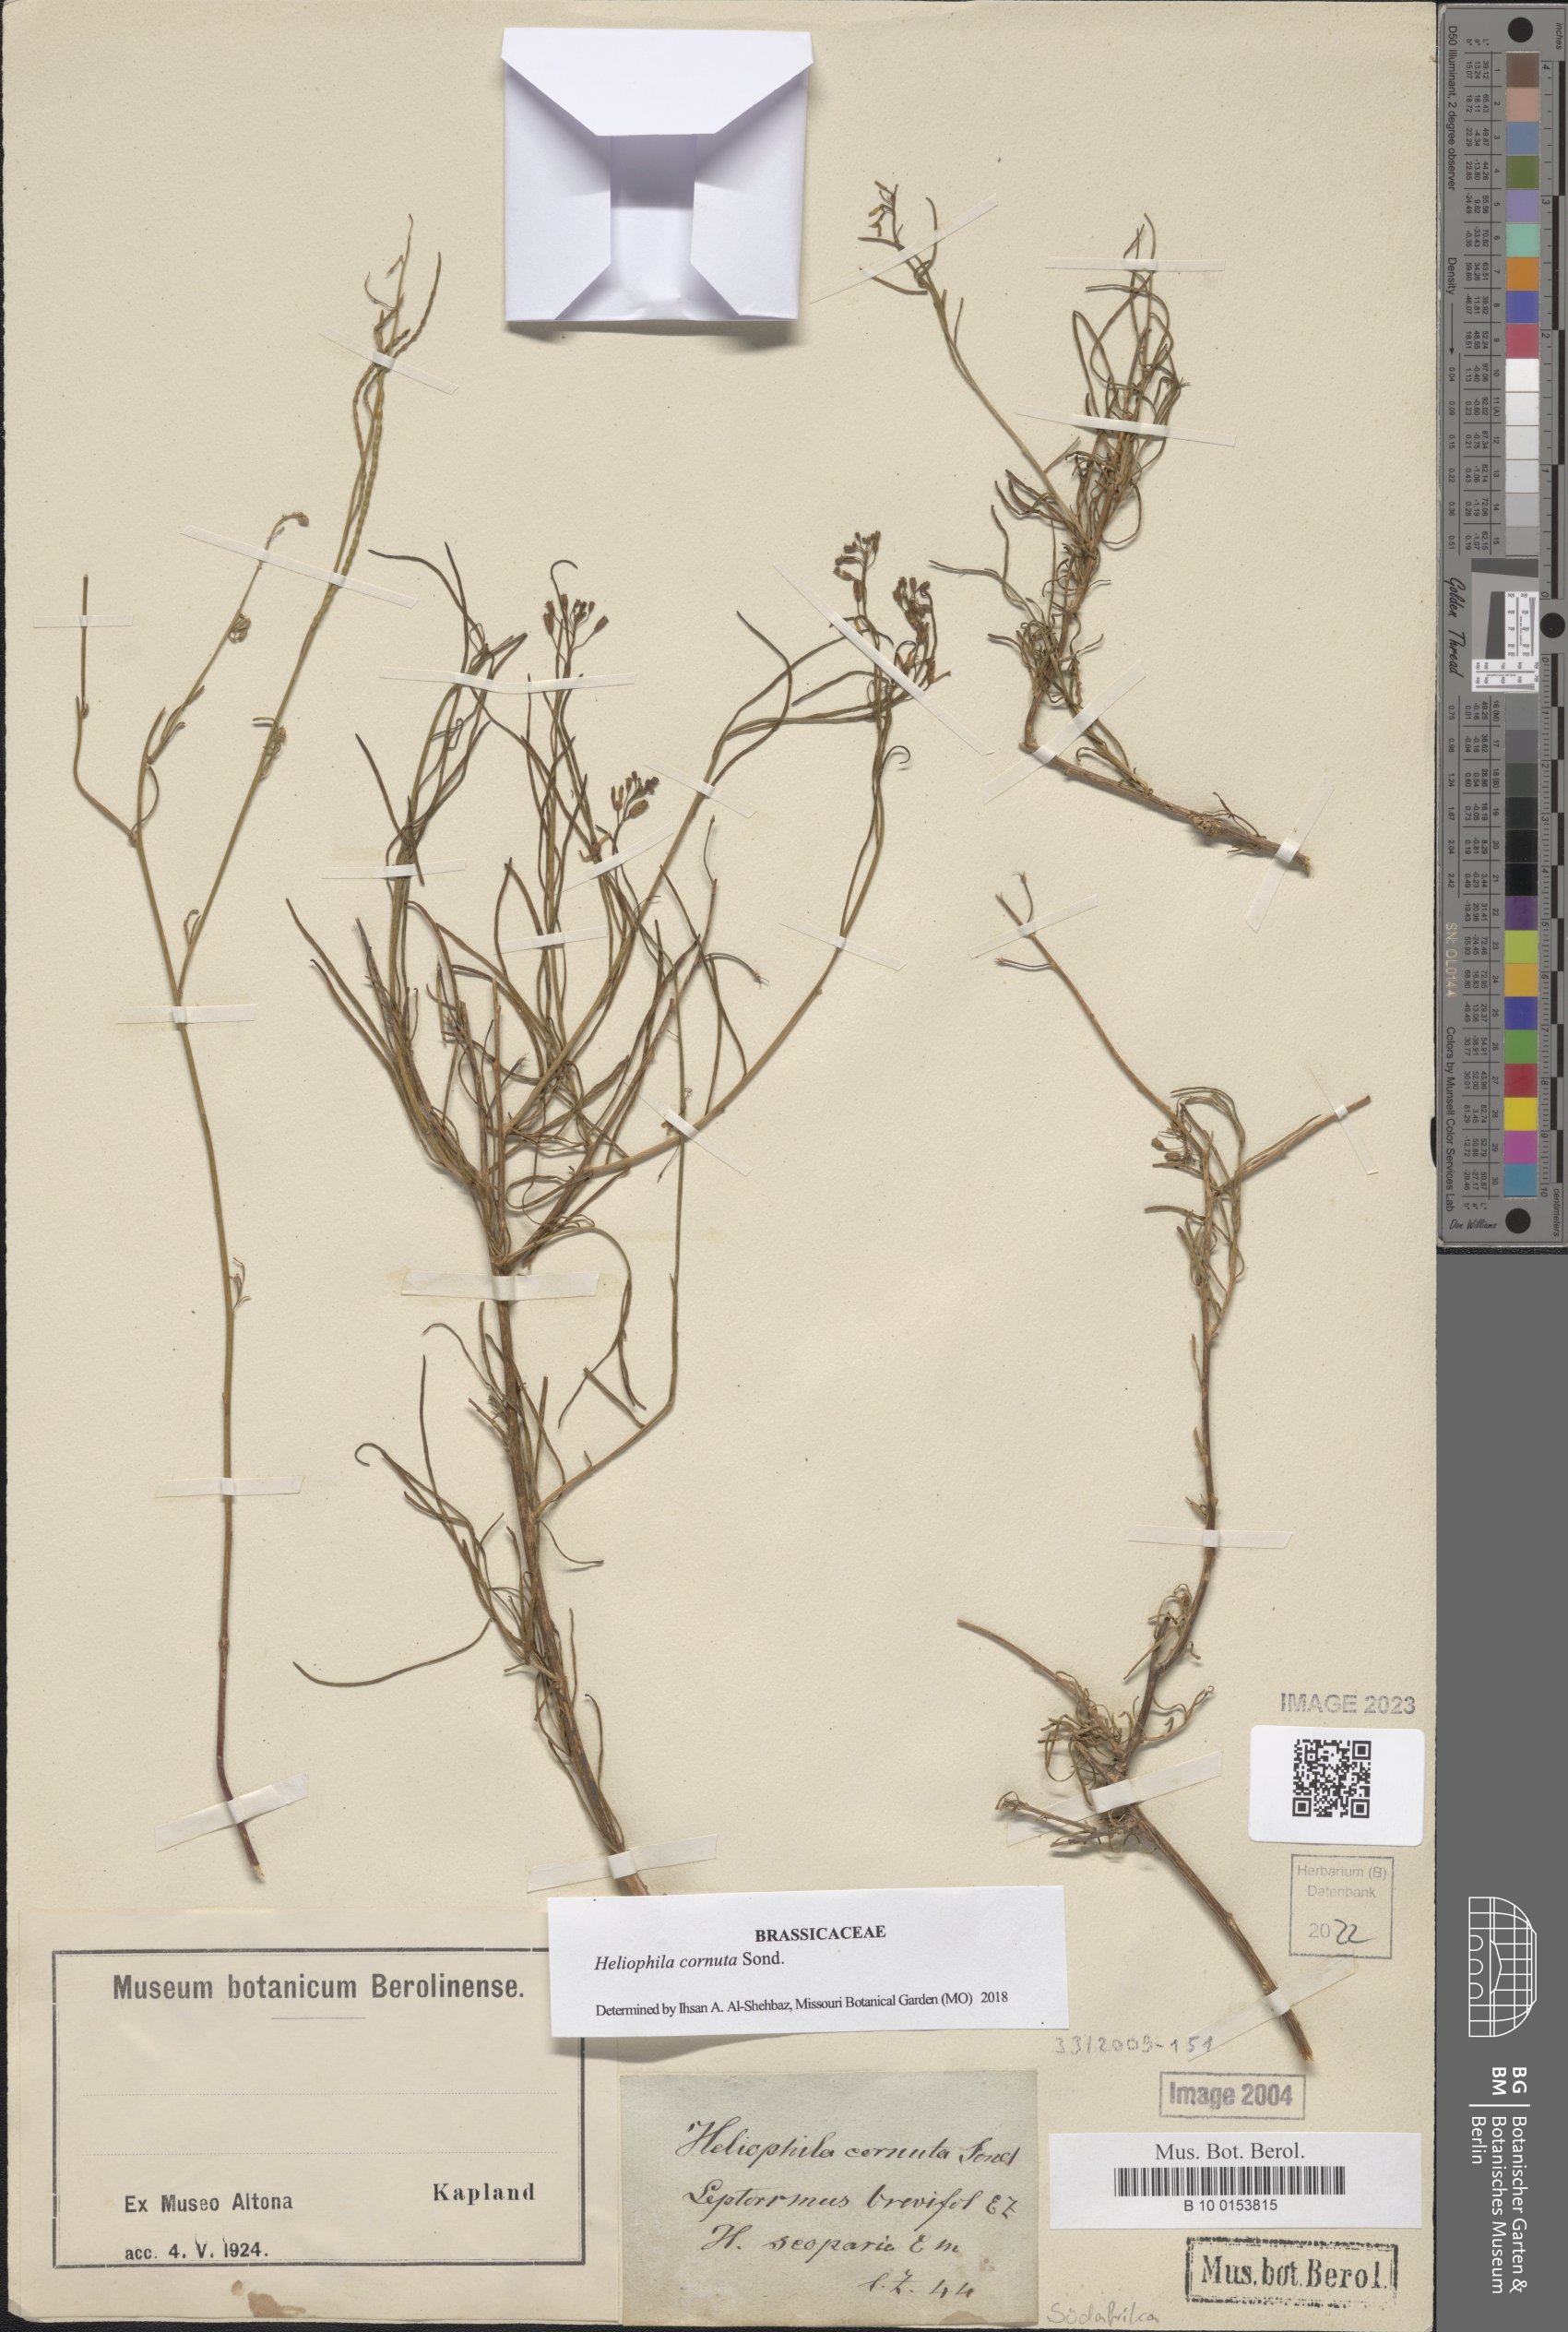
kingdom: Plantae
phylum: Tracheophyta
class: Magnoliopsida
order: Brassicales
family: Brassicaceae
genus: Heliophila
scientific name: Heliophila cornuta
